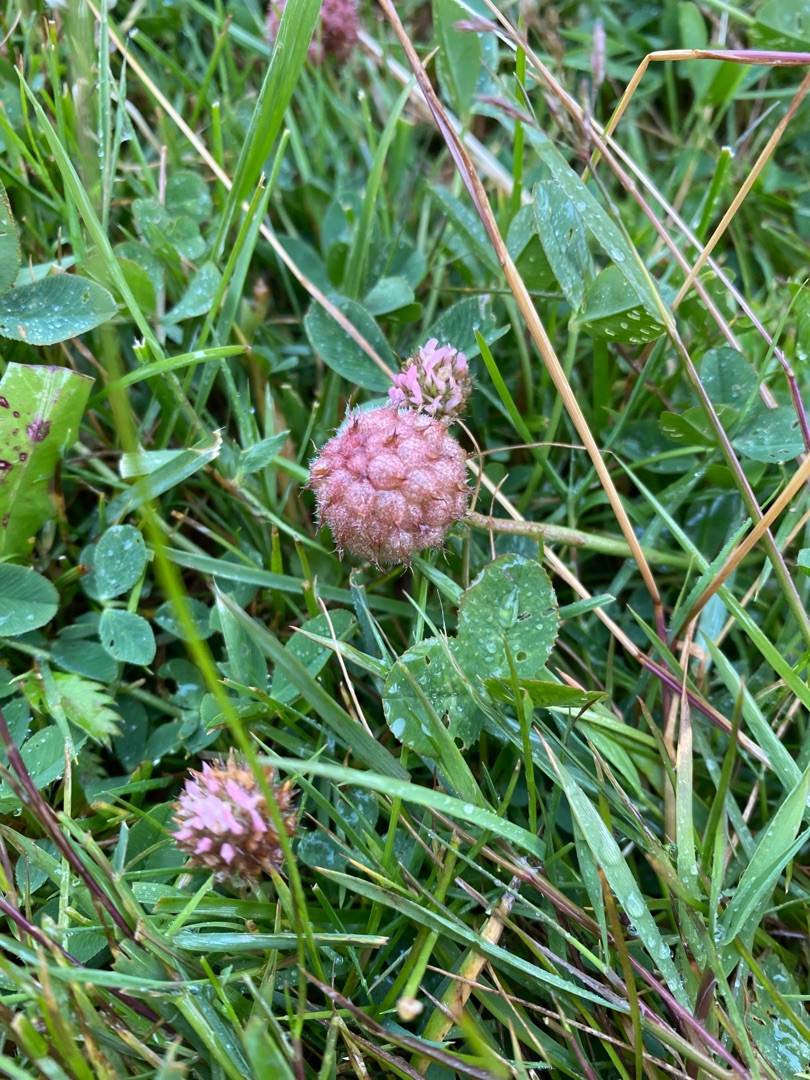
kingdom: Plantae
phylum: Tracheophyta
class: Magnoliopsida
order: Fabales
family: Fabaceae
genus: Trifolium
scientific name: Trifolium fragiferum
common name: Jordbær-kløver
